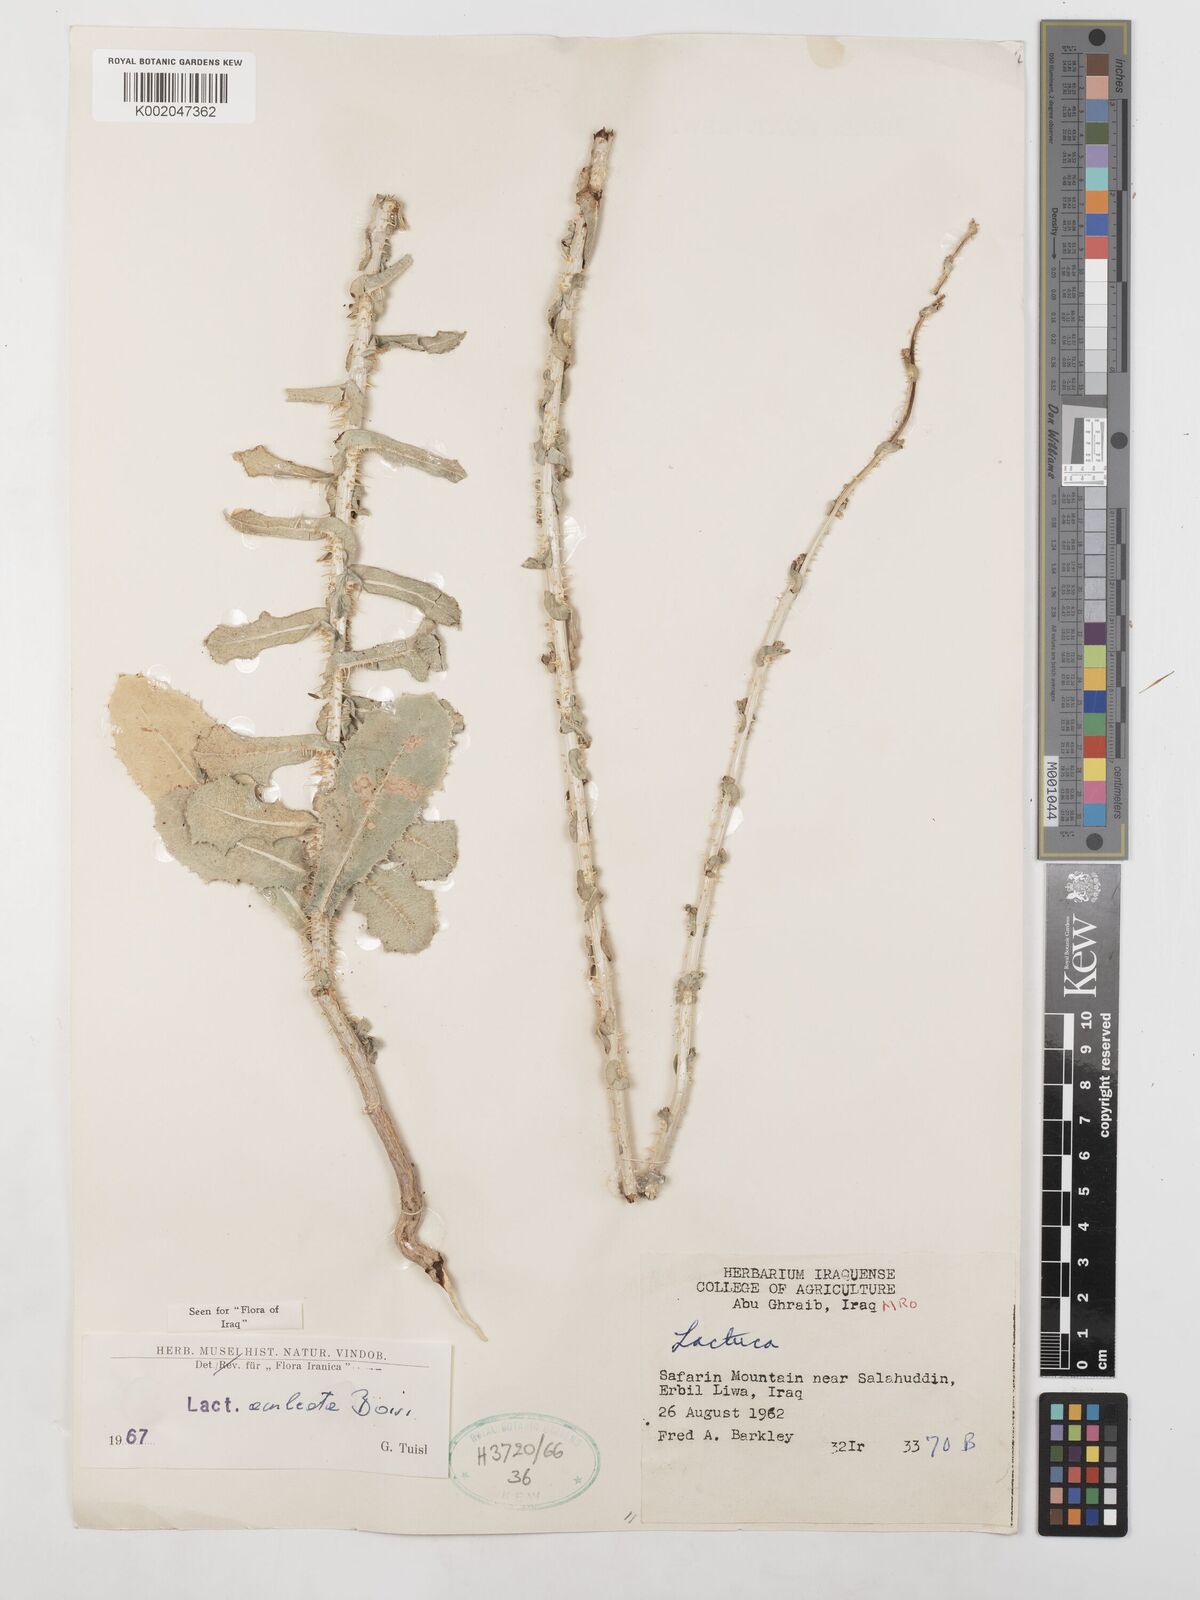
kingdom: Plantae
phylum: Tracheophyta
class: Magnoliopsida
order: Asterales
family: Asteraceae
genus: Lactuca
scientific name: Lactuca aculeata
